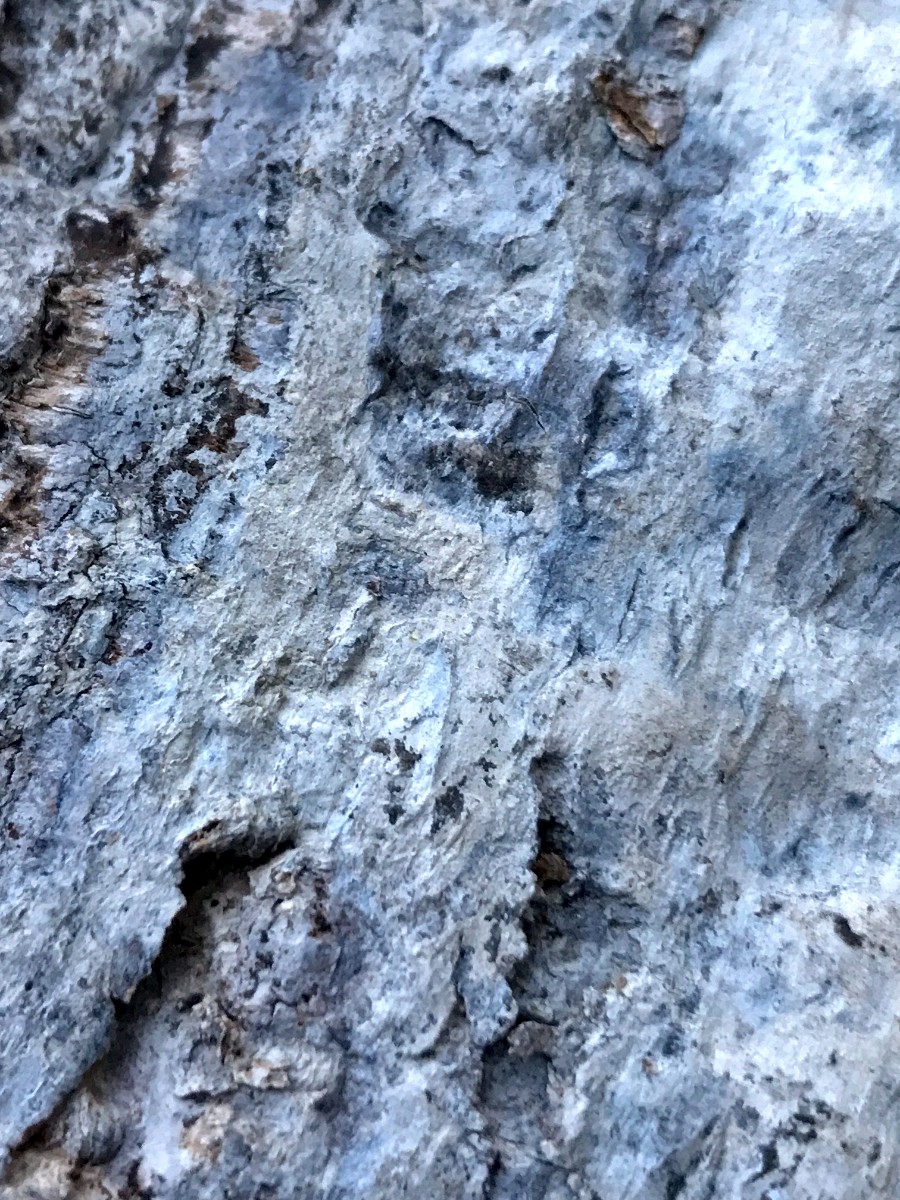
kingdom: Fungi
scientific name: Fungi
